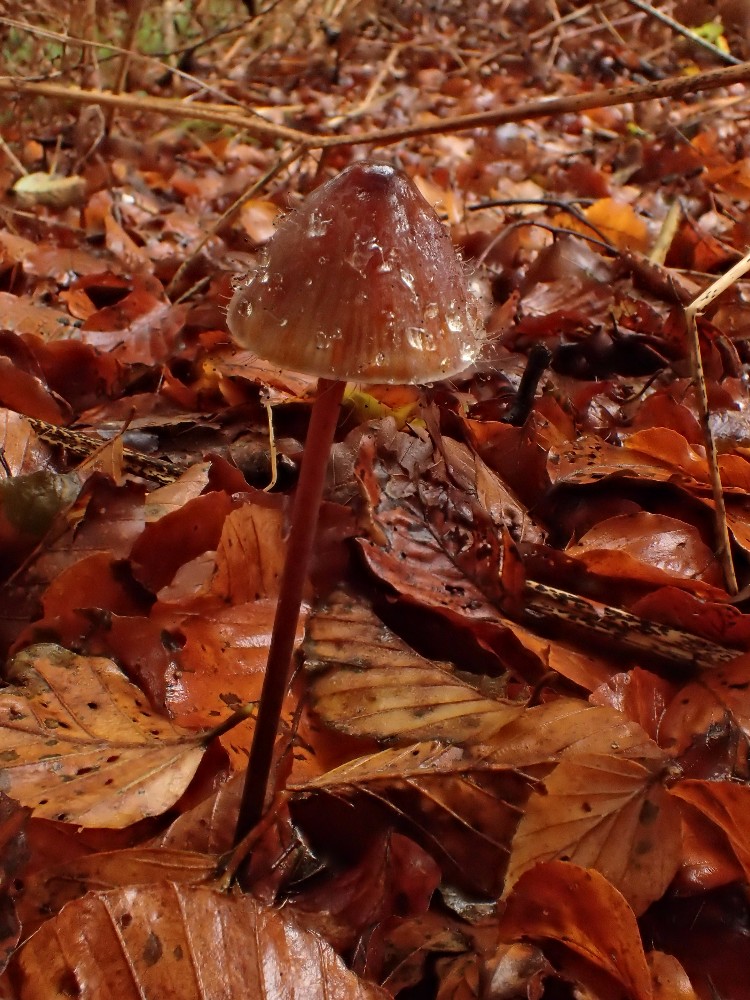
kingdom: Fungi
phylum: Mucoromycota
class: Mucoromycetes
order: Mucorales
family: Phycomycetaceae
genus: Spinellus
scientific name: Spinellus fusiger
